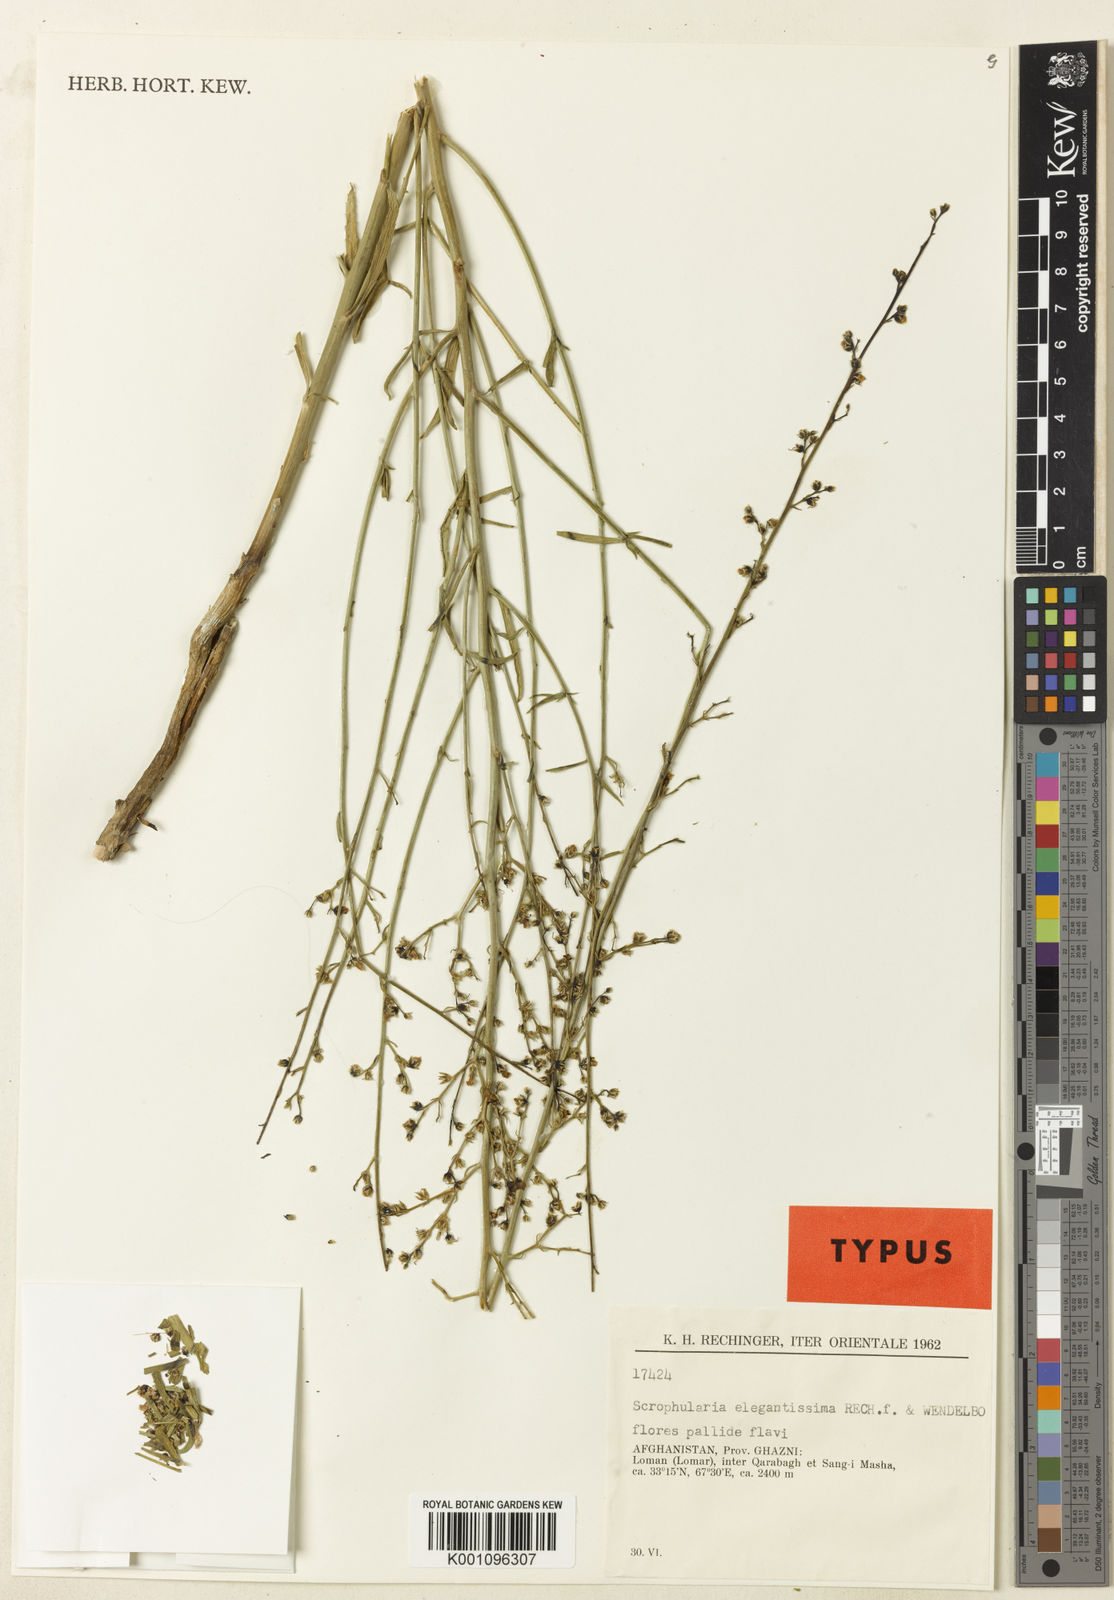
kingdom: Plantae
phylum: Tracheophyta
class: Magnoliopsida
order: Lamiales
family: Scrophulariaceae
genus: Scrophularia
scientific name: Scrophularia cabulica
